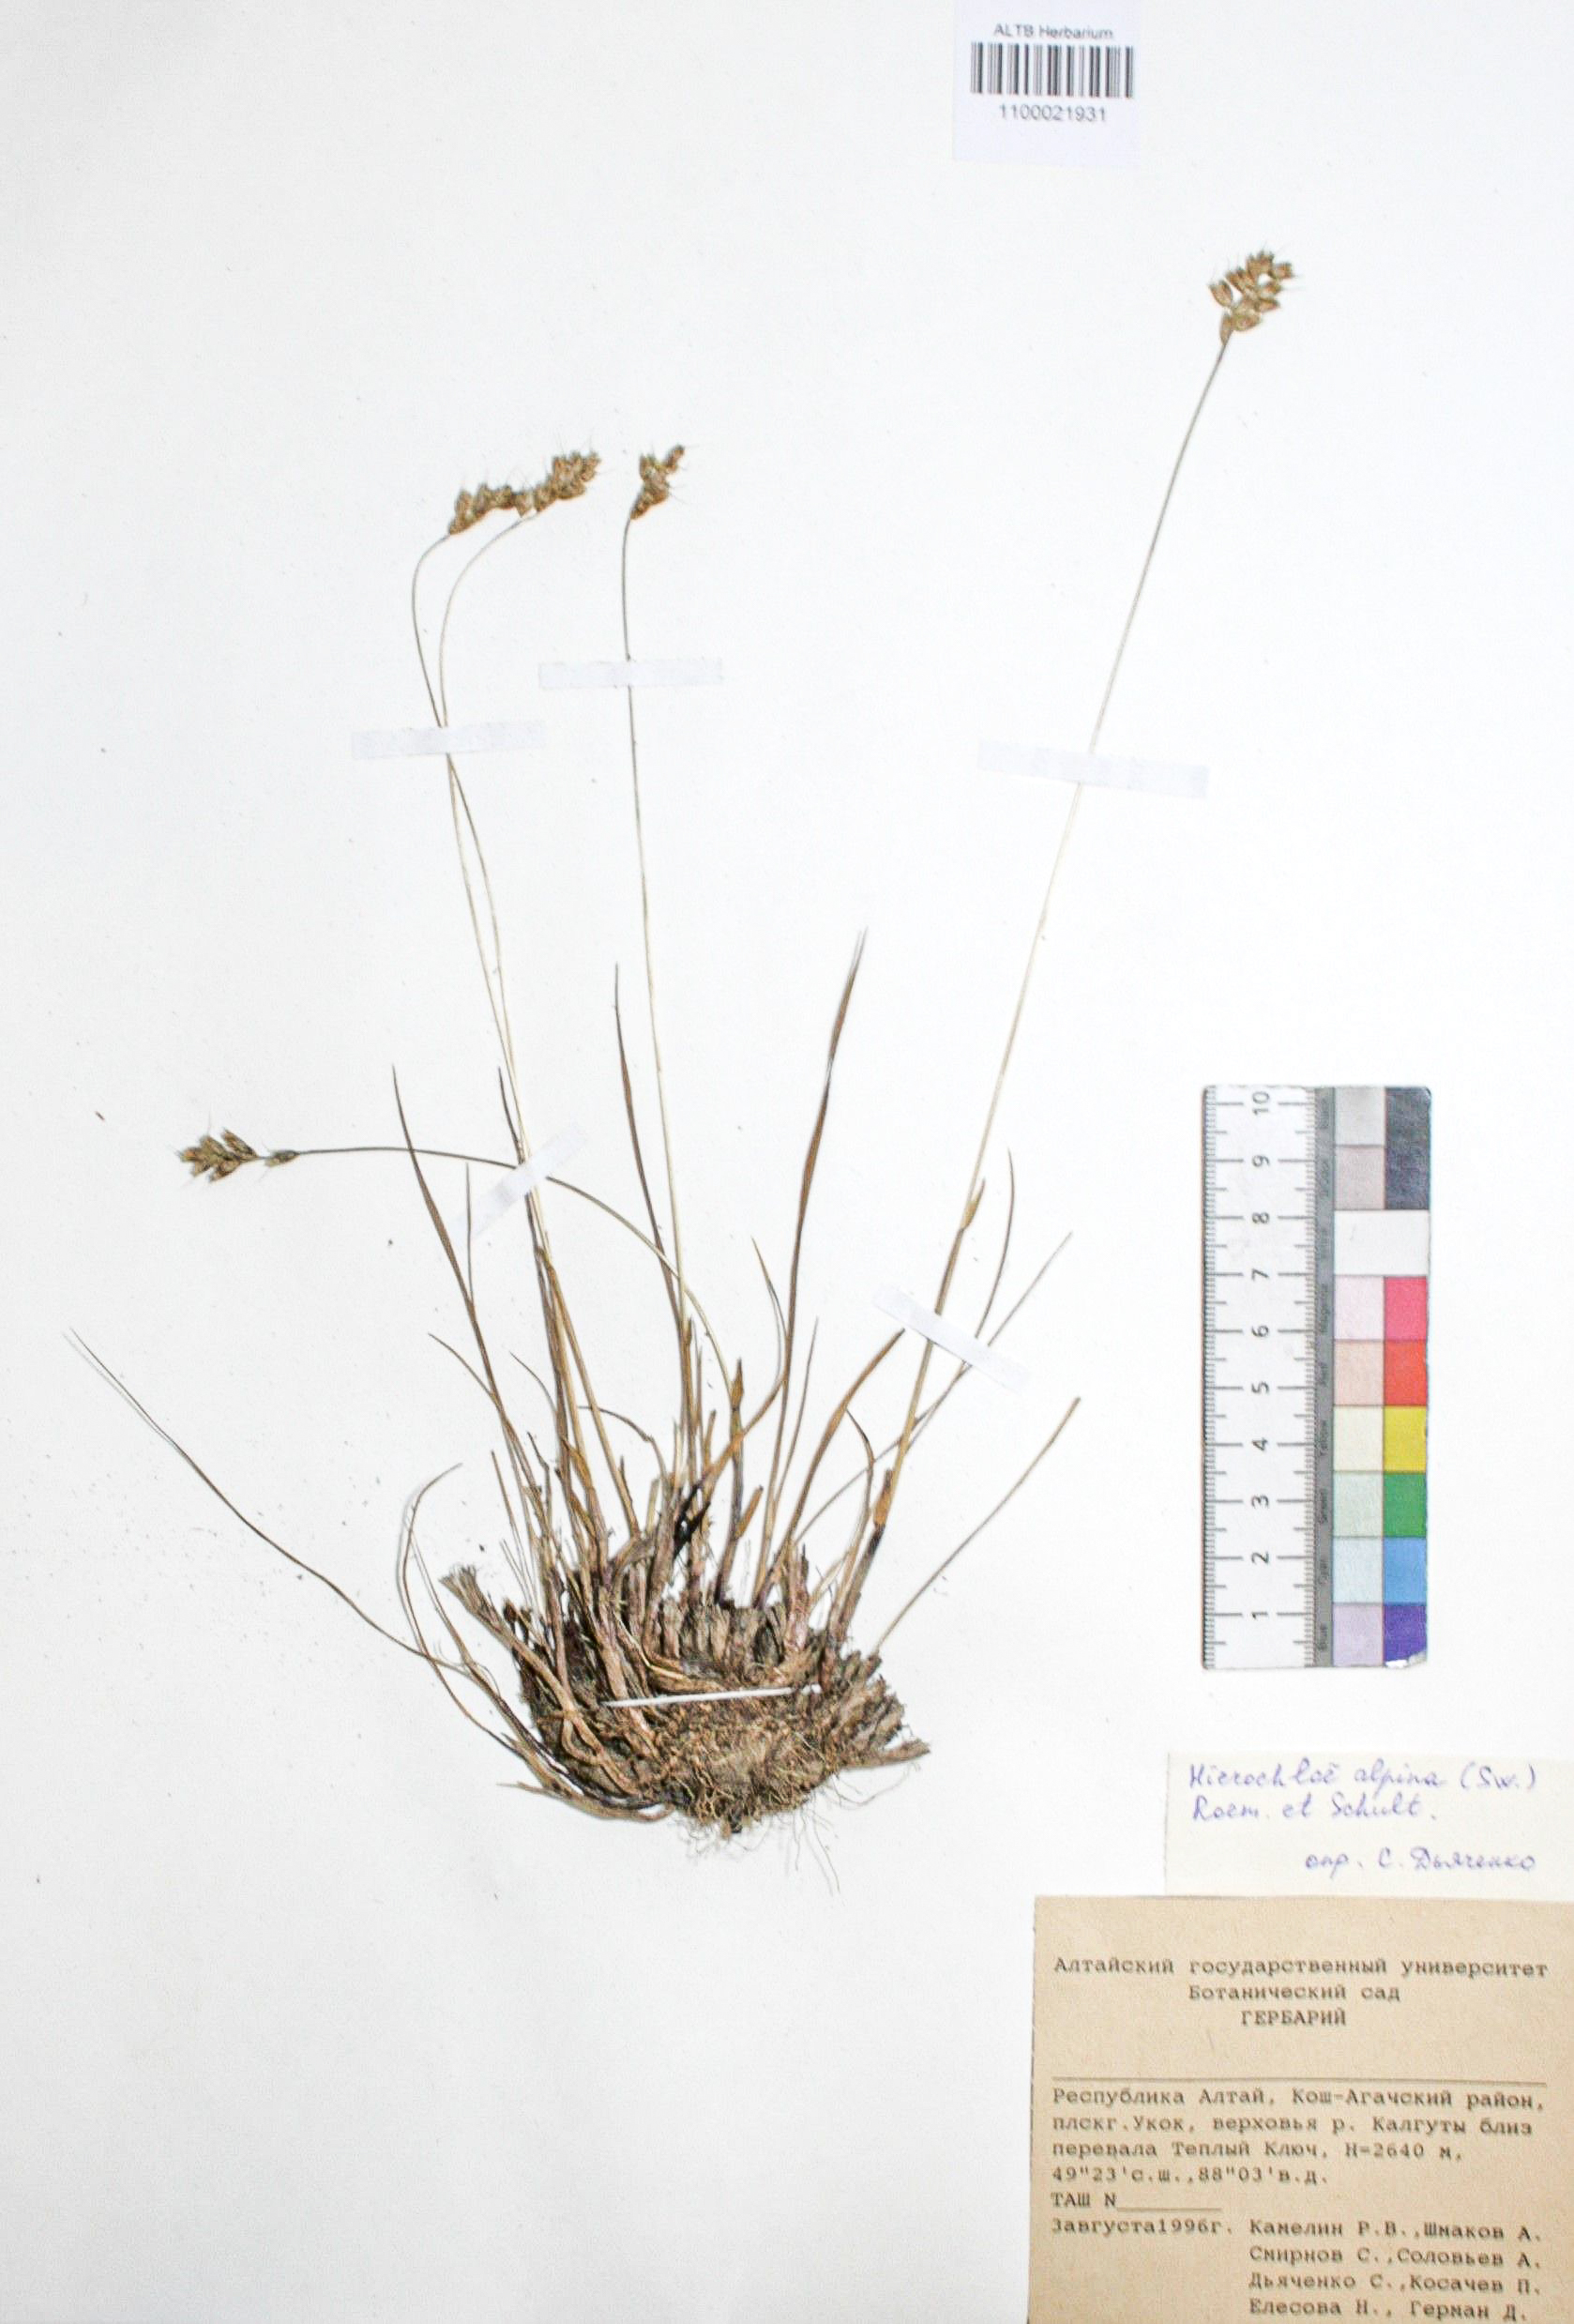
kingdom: Plantae
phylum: Tracheophyta
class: Liliopsida
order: Poales
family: Poaceae
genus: Anthoxanthum
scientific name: Anthoxanthum monticola
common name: Alpine sweetgrass
